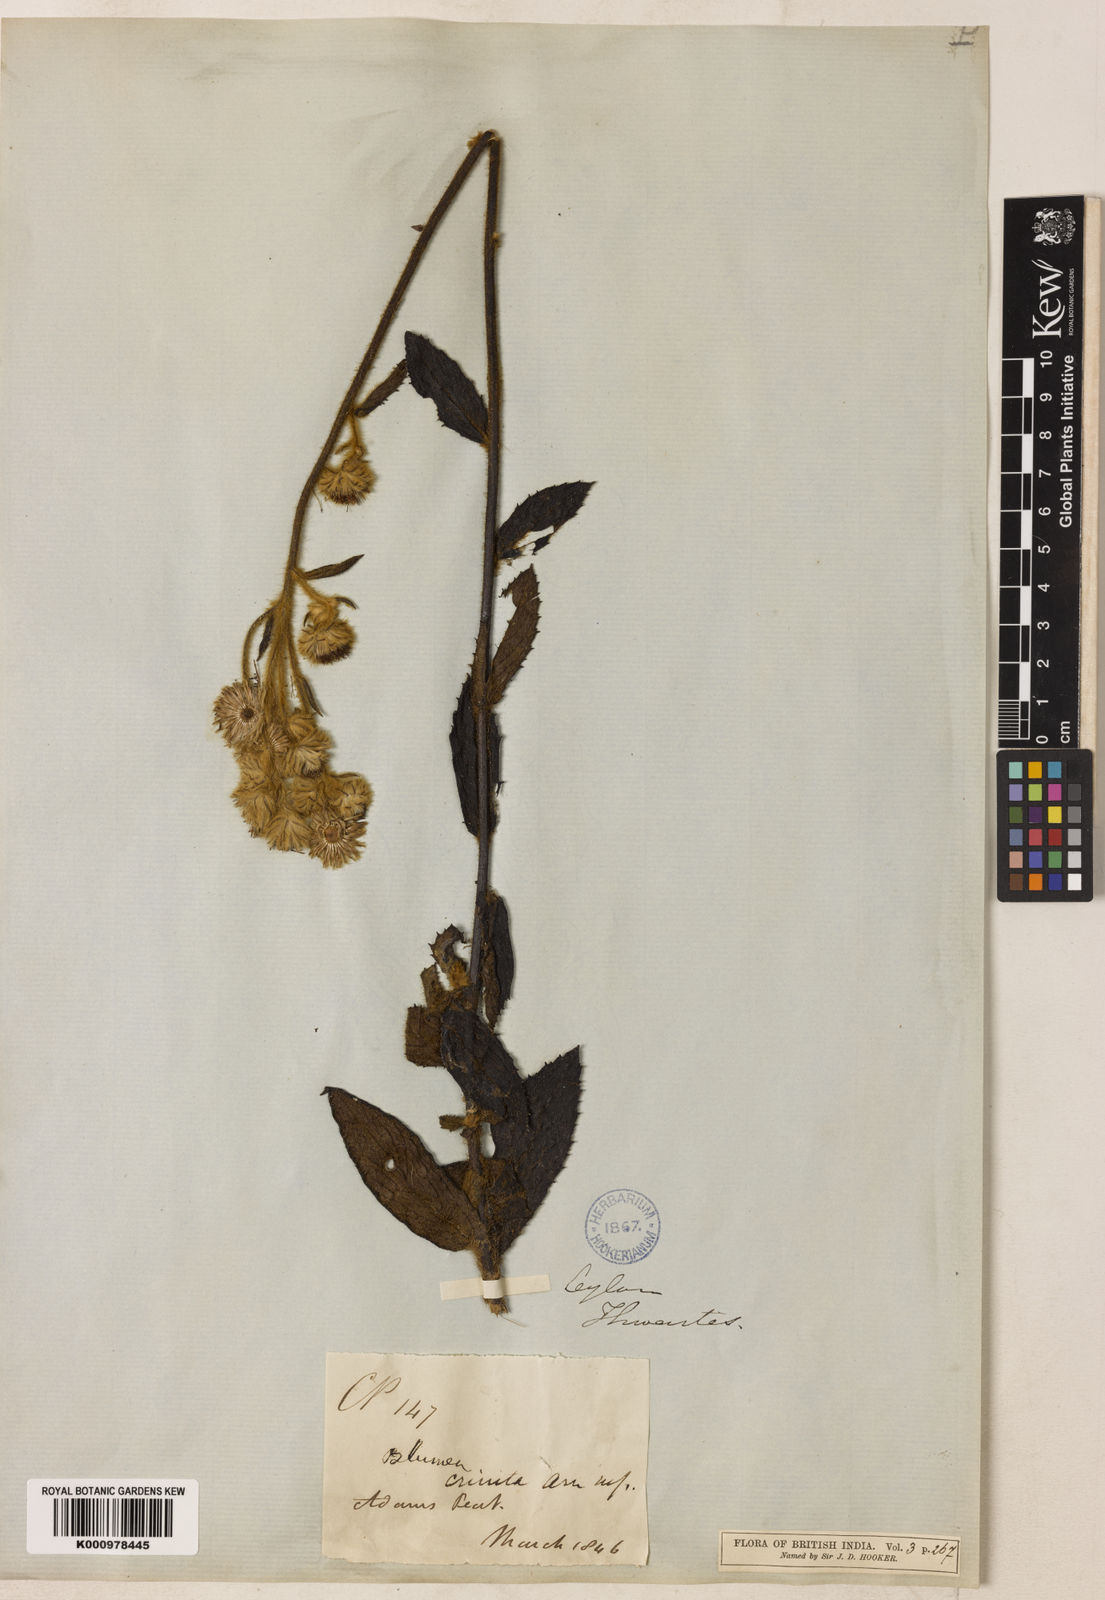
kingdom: Plantae
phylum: Tracheophyta
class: Magnoliopsida
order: Asterales
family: Asteraceae
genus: Blumea
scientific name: Blumea crinita
